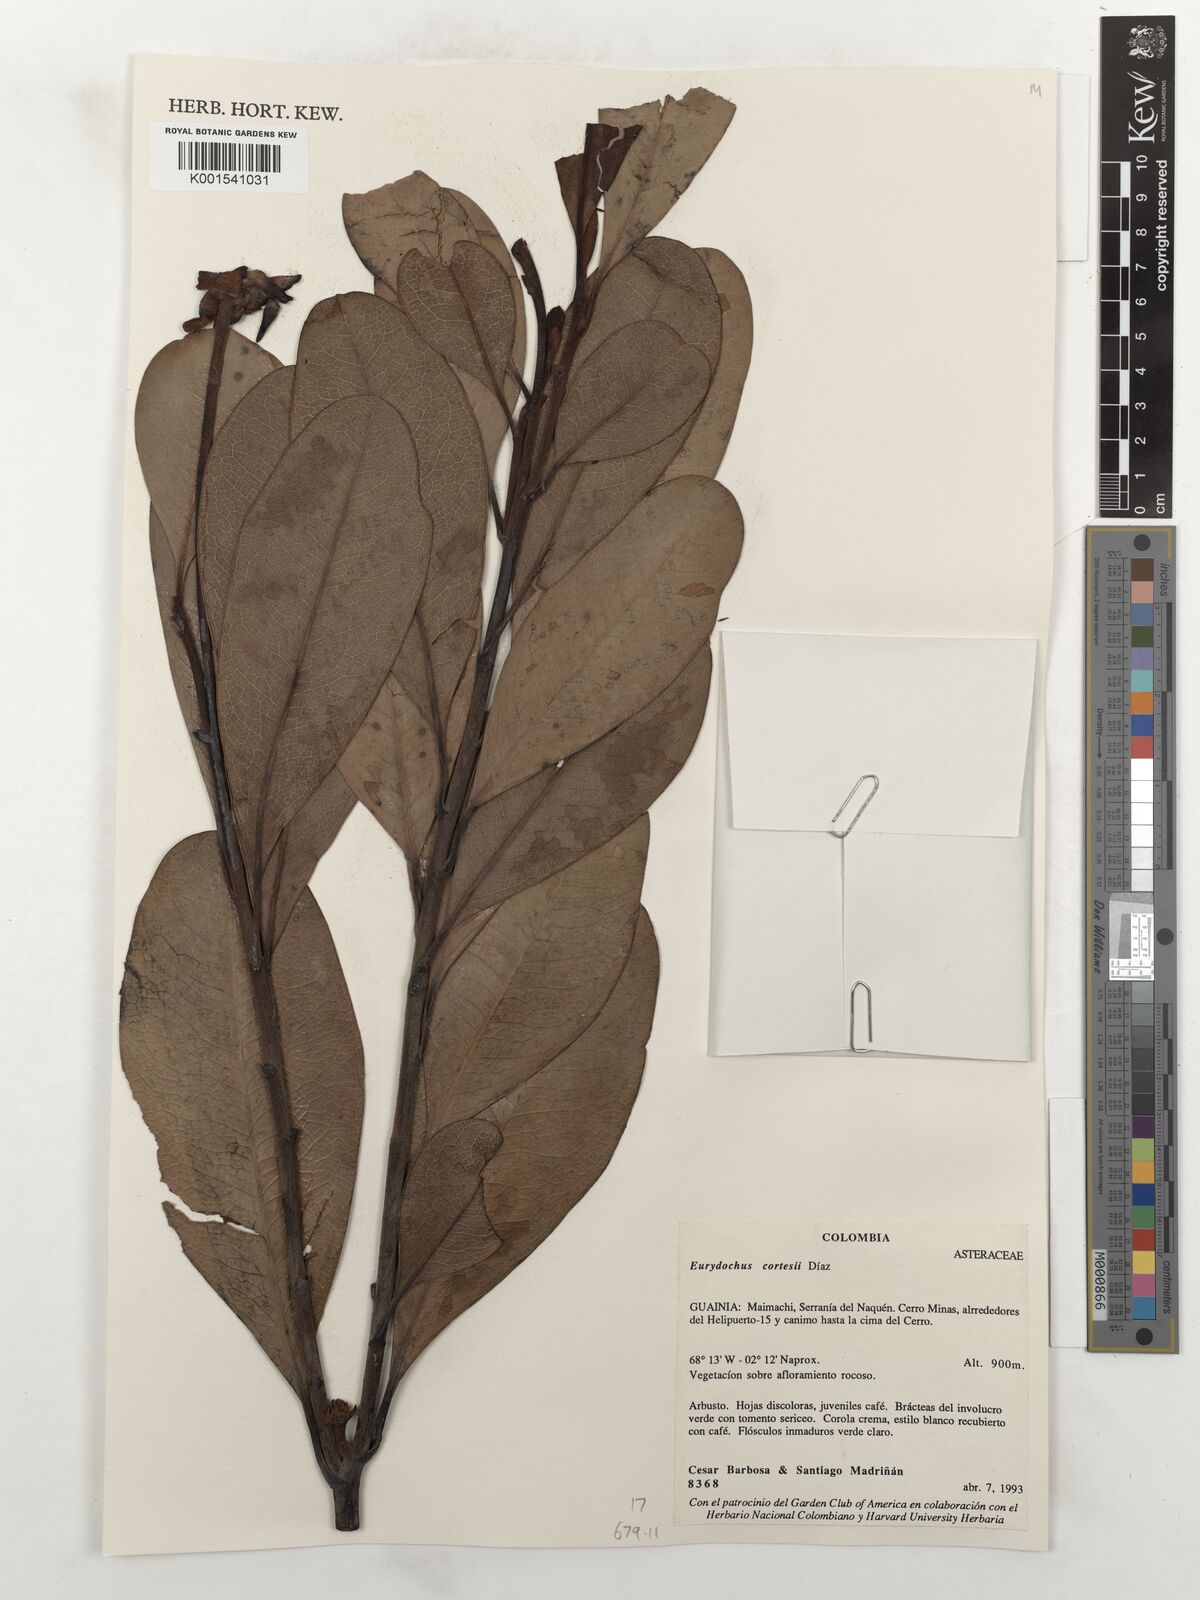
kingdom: Plantae
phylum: Tracheophyta
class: Magnoliopsida
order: Asterales
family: Asteraceae
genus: Gongylolepis
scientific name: Gongylolepis cortesii
